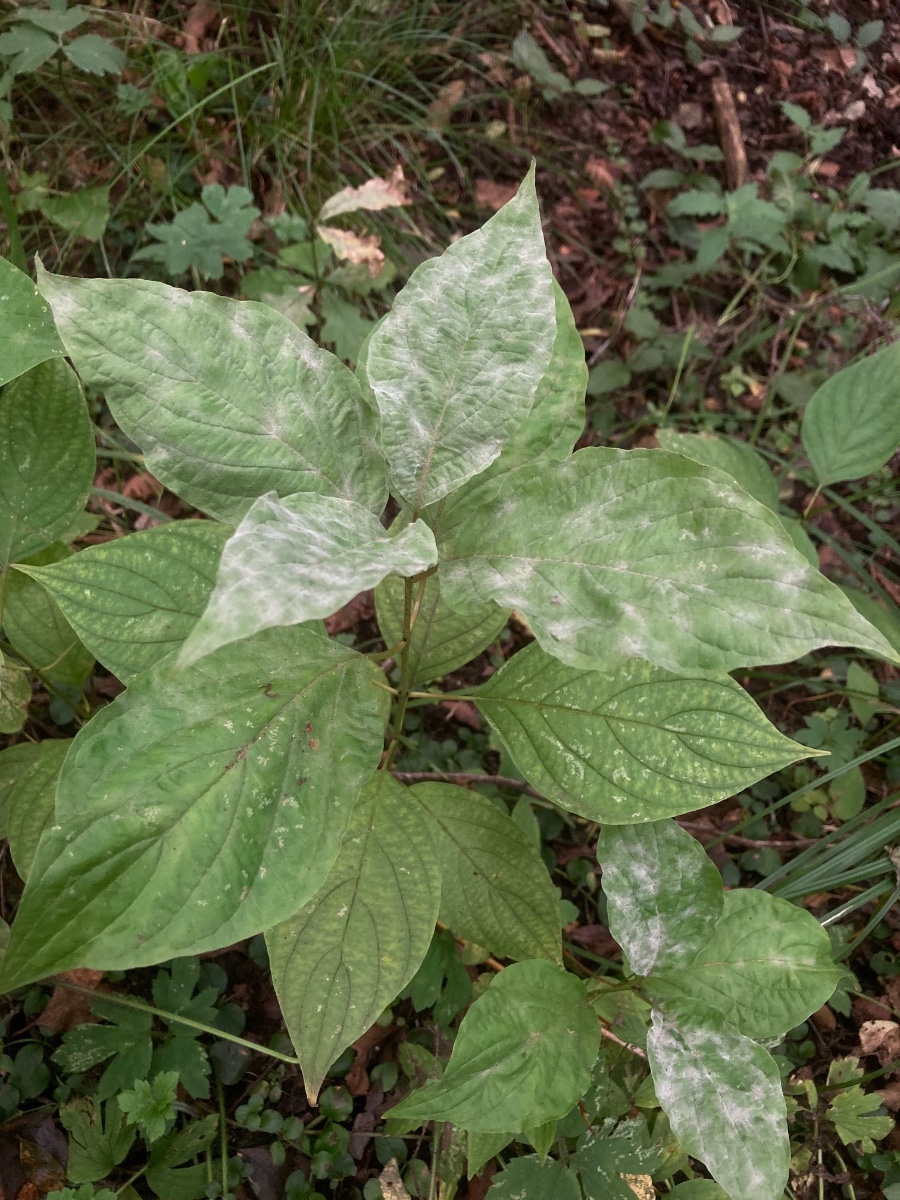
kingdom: Fungi
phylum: Ascomycota
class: Leotiomycetes
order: Helotiales
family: Erysiphaceae
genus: Erysiphe
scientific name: Erysiphe tortilis
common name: kornel-meldug
